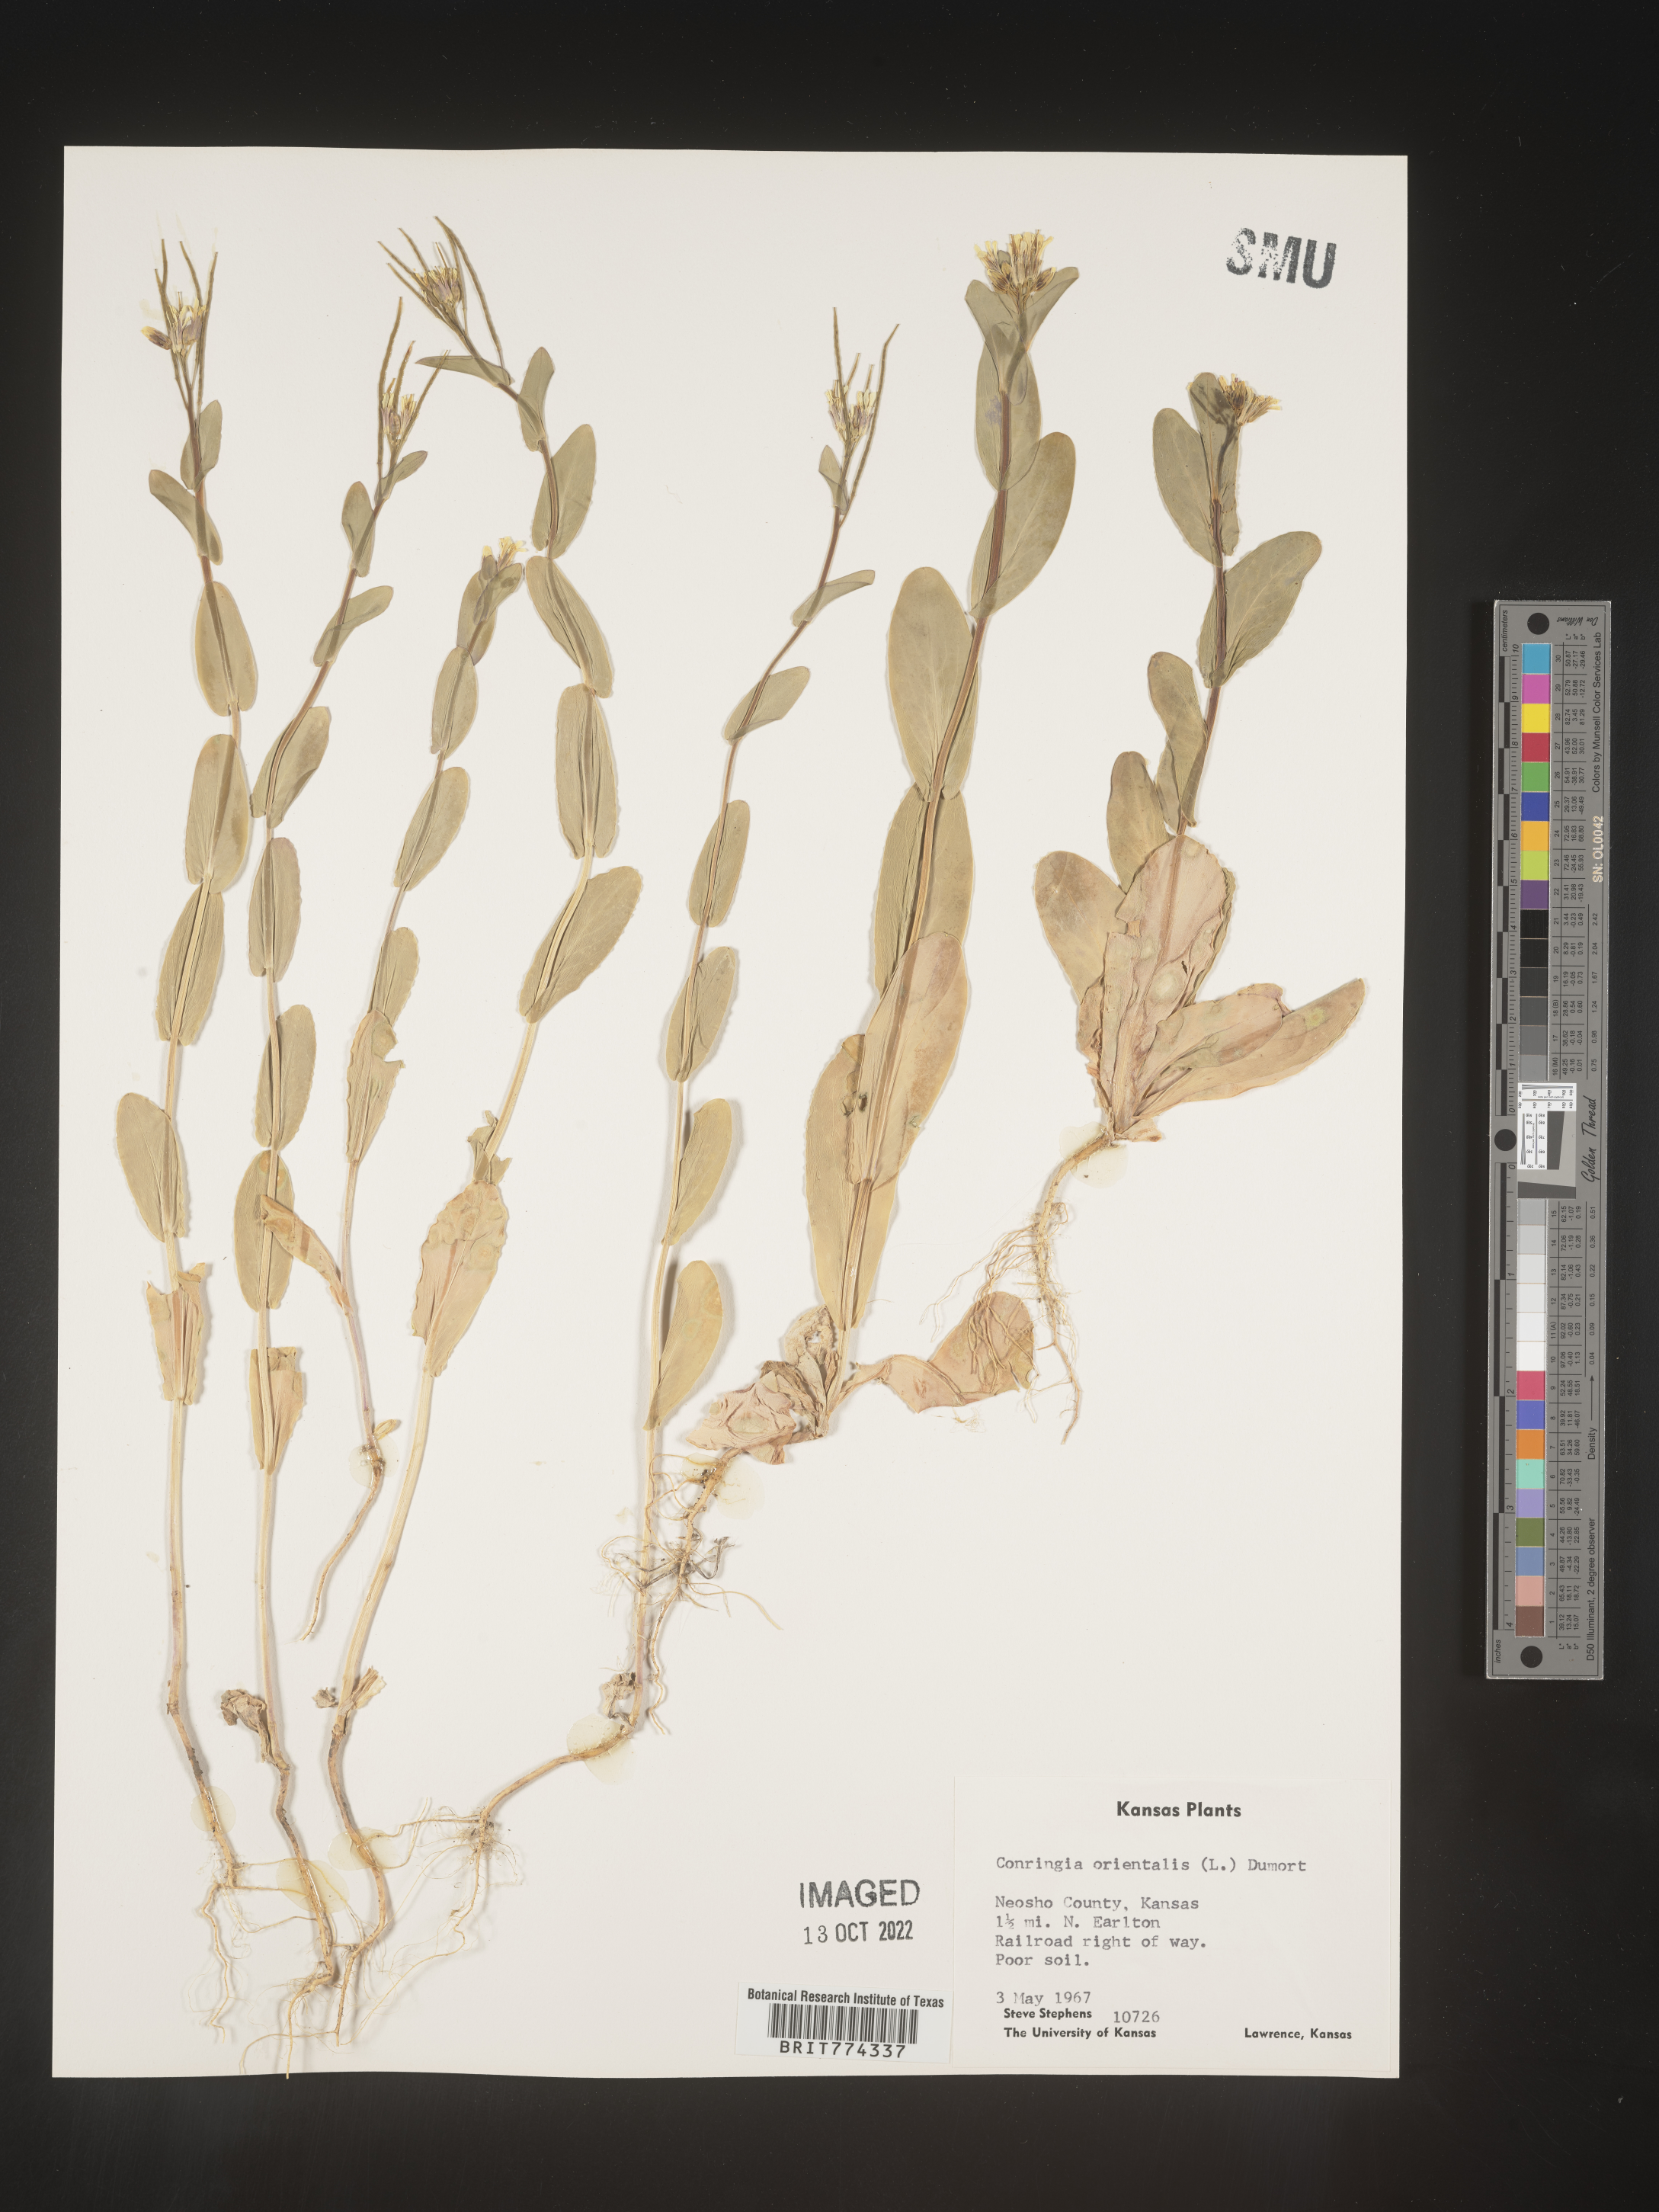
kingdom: Plantae
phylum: Tracheophyta
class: Magnoliopsida
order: Brassicales
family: Brassicaceae
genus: Conringia
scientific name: Conringia
